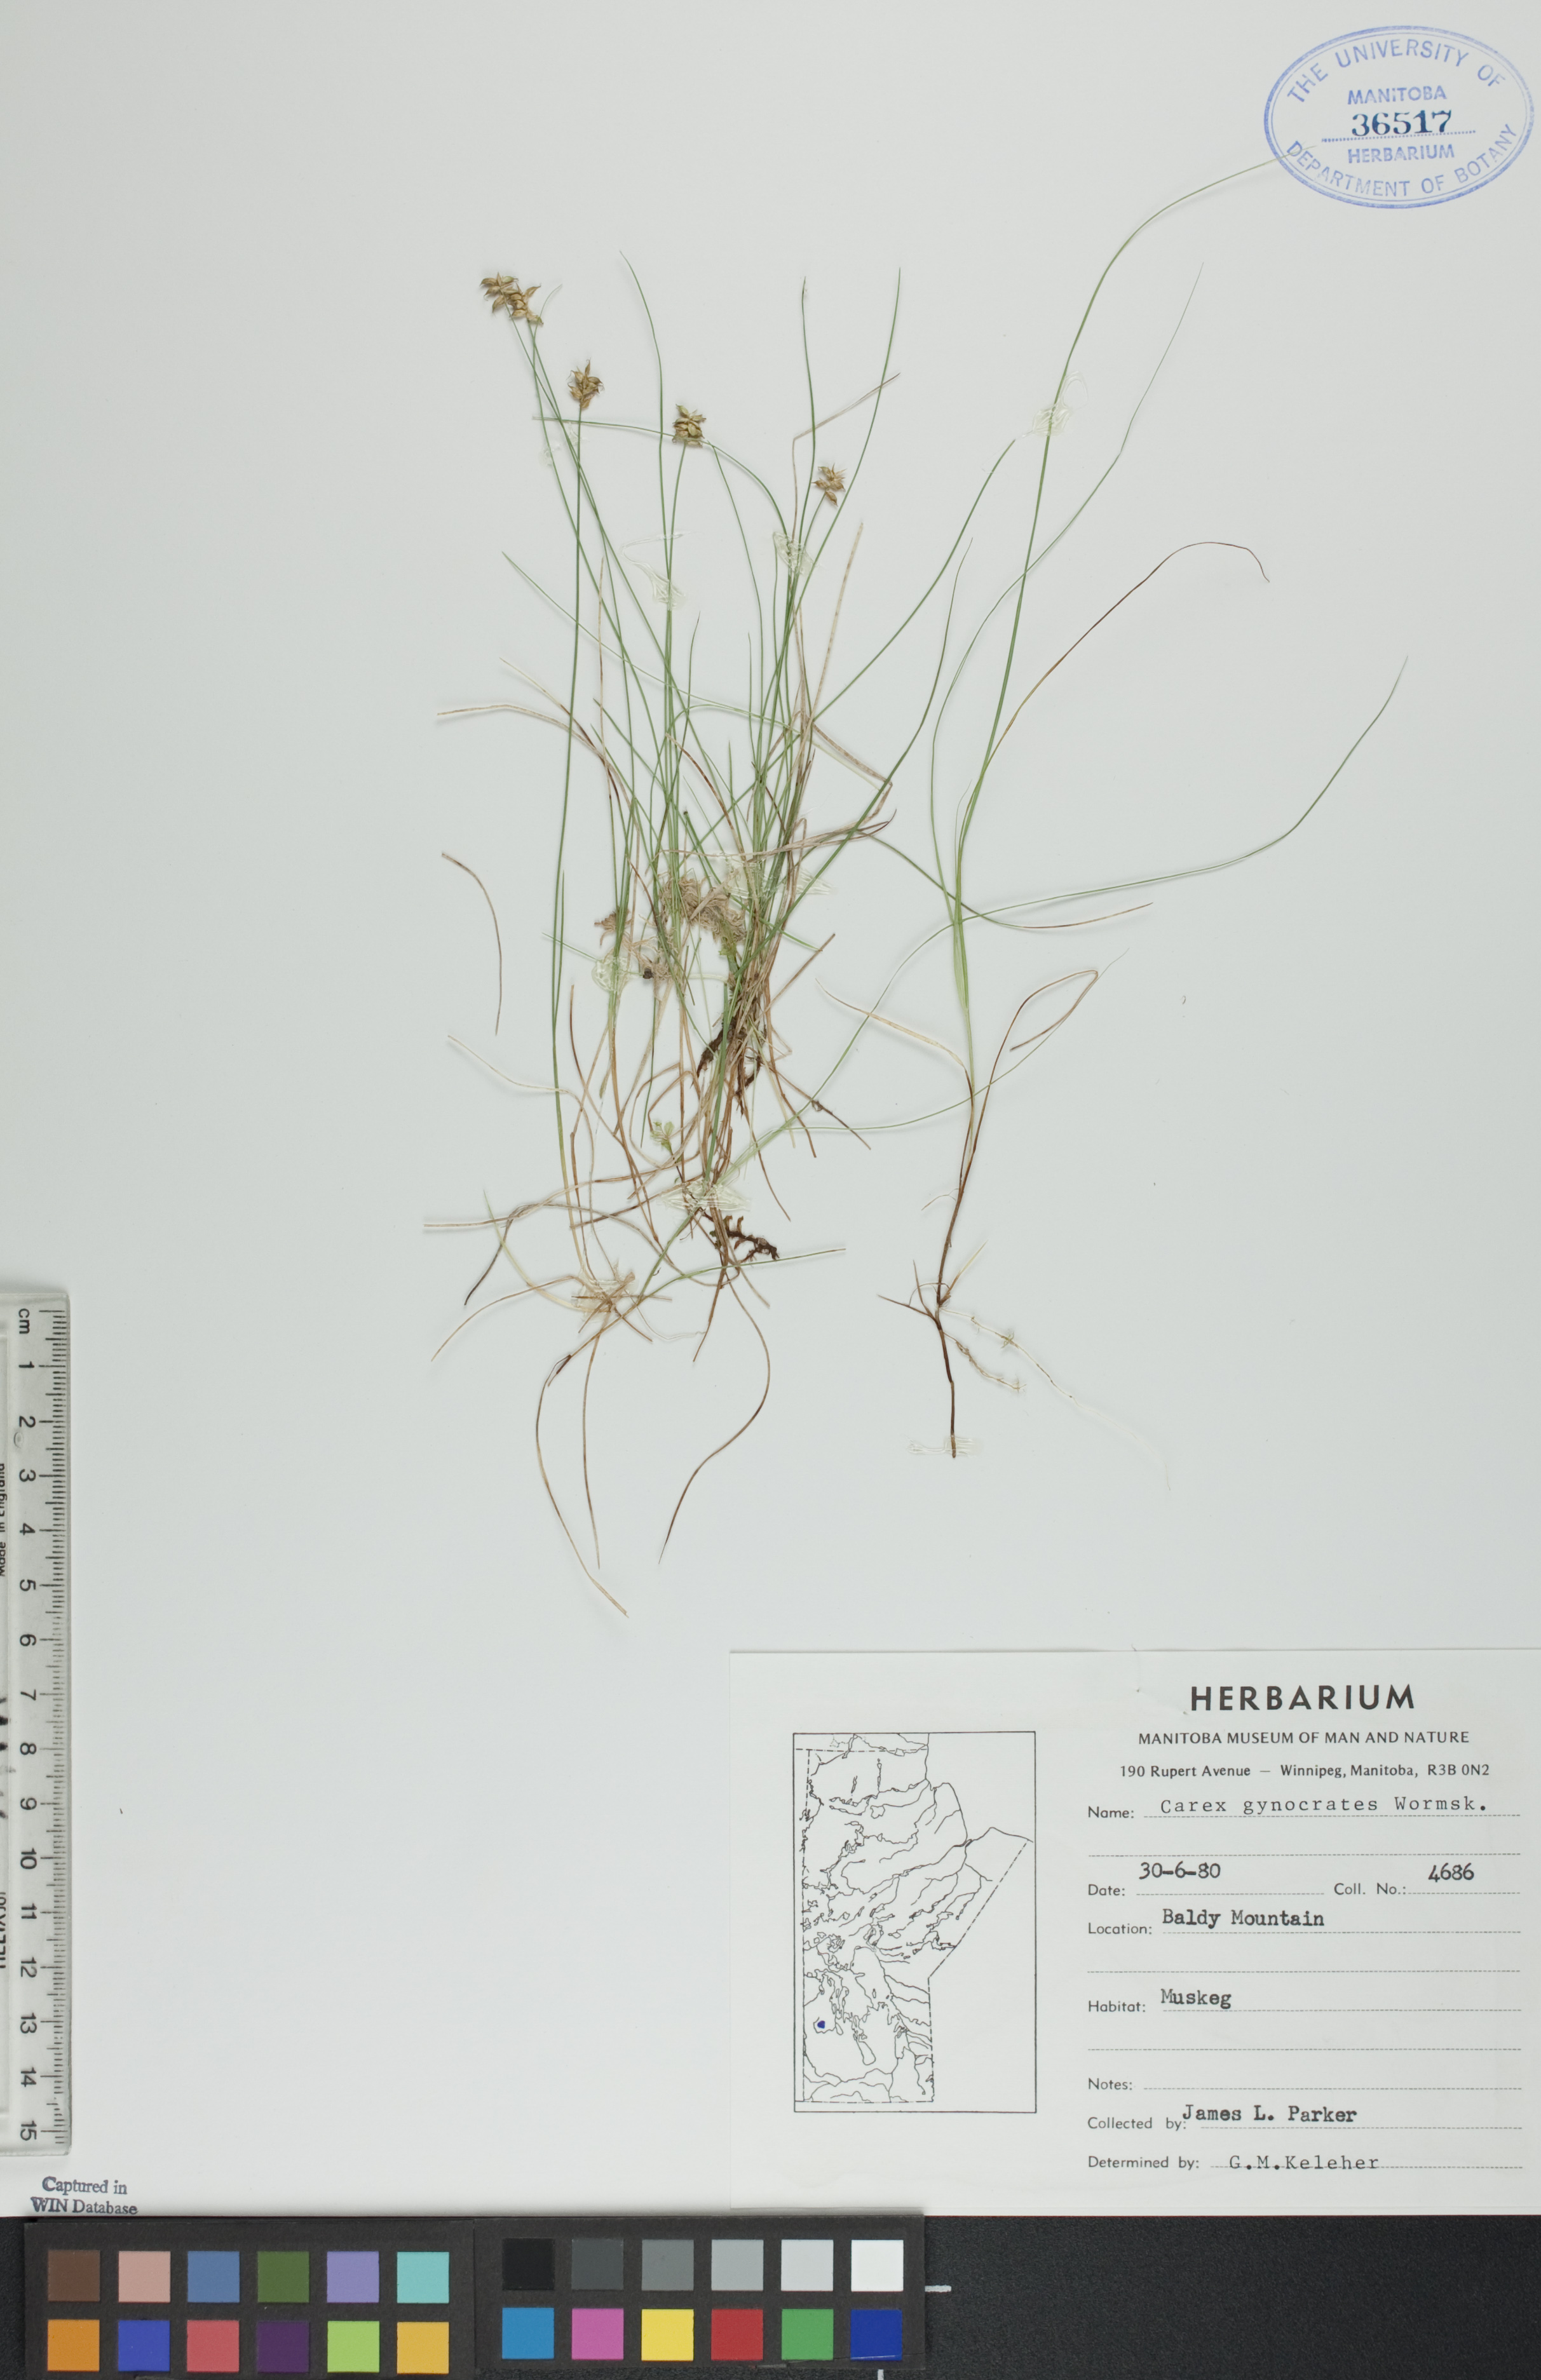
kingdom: Plantae
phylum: Tracheophyta
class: Liliopsida
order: Poales
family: Cyperaceae
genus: Carex
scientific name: Carex nardina
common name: Nard sedge
